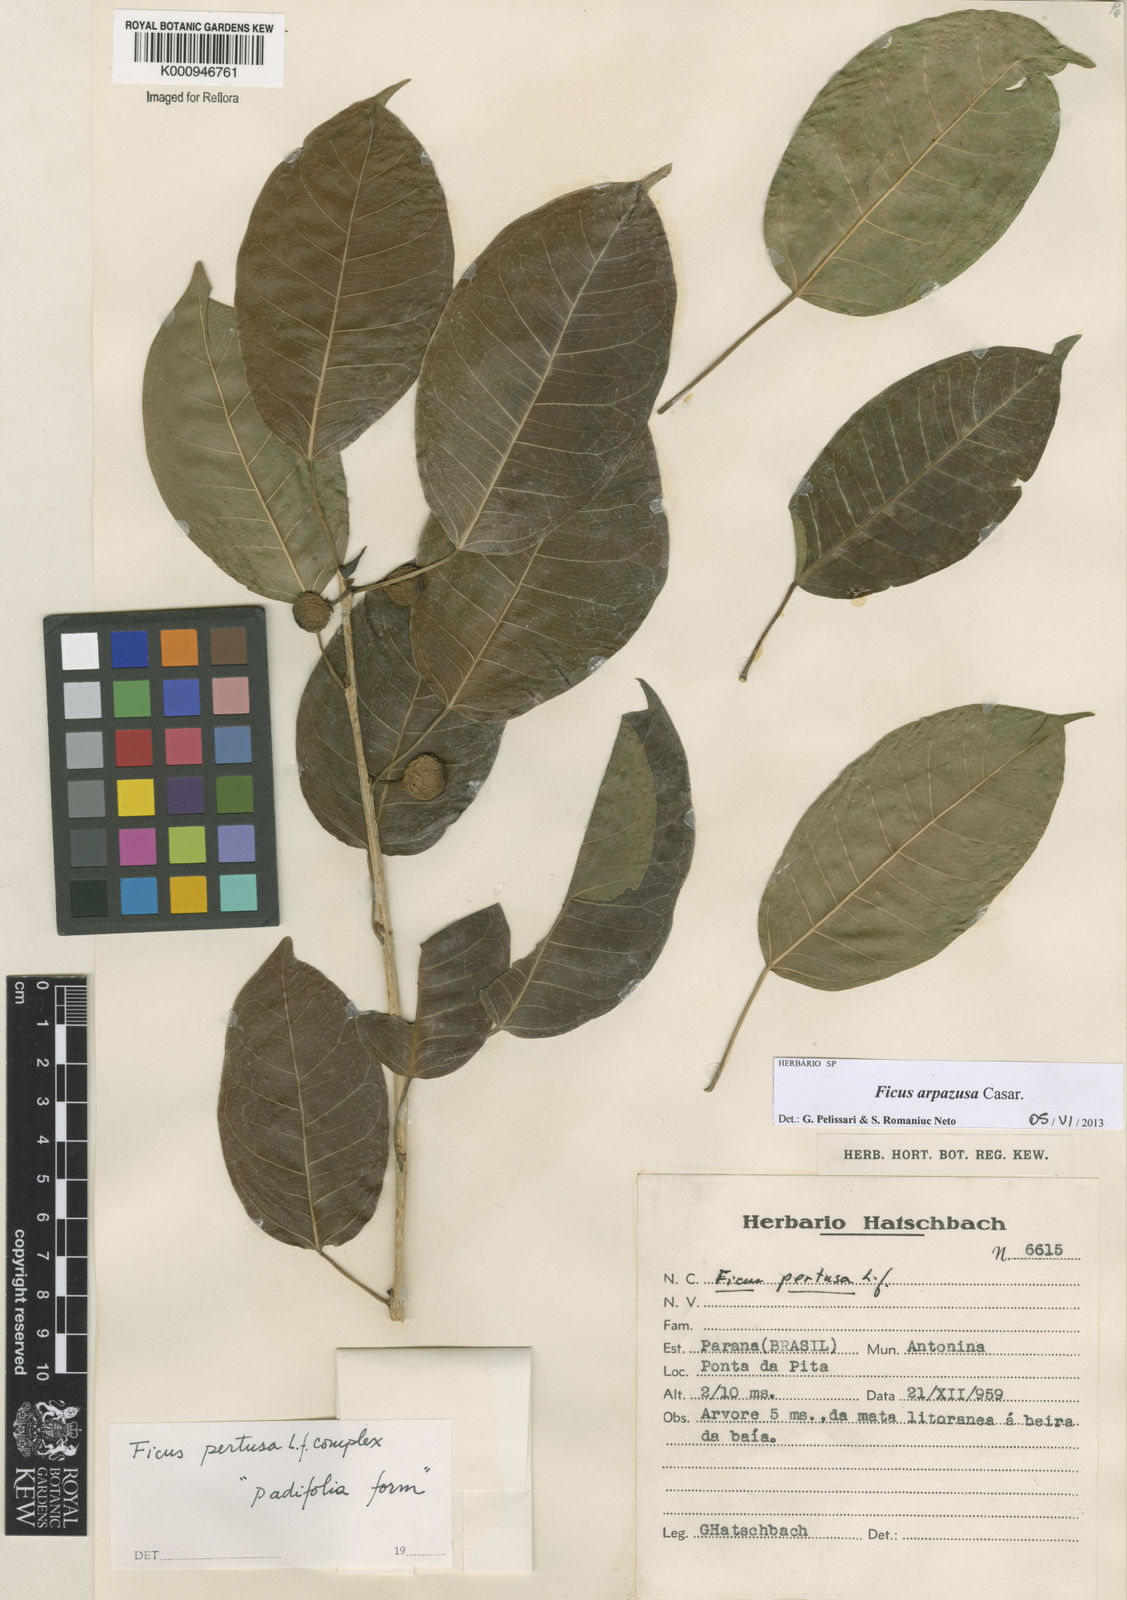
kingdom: Plantae
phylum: Tracheophyta
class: Magnoliopsida
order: Rosales
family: Moraceae
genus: Ficus
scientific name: Ficus arpazusa
